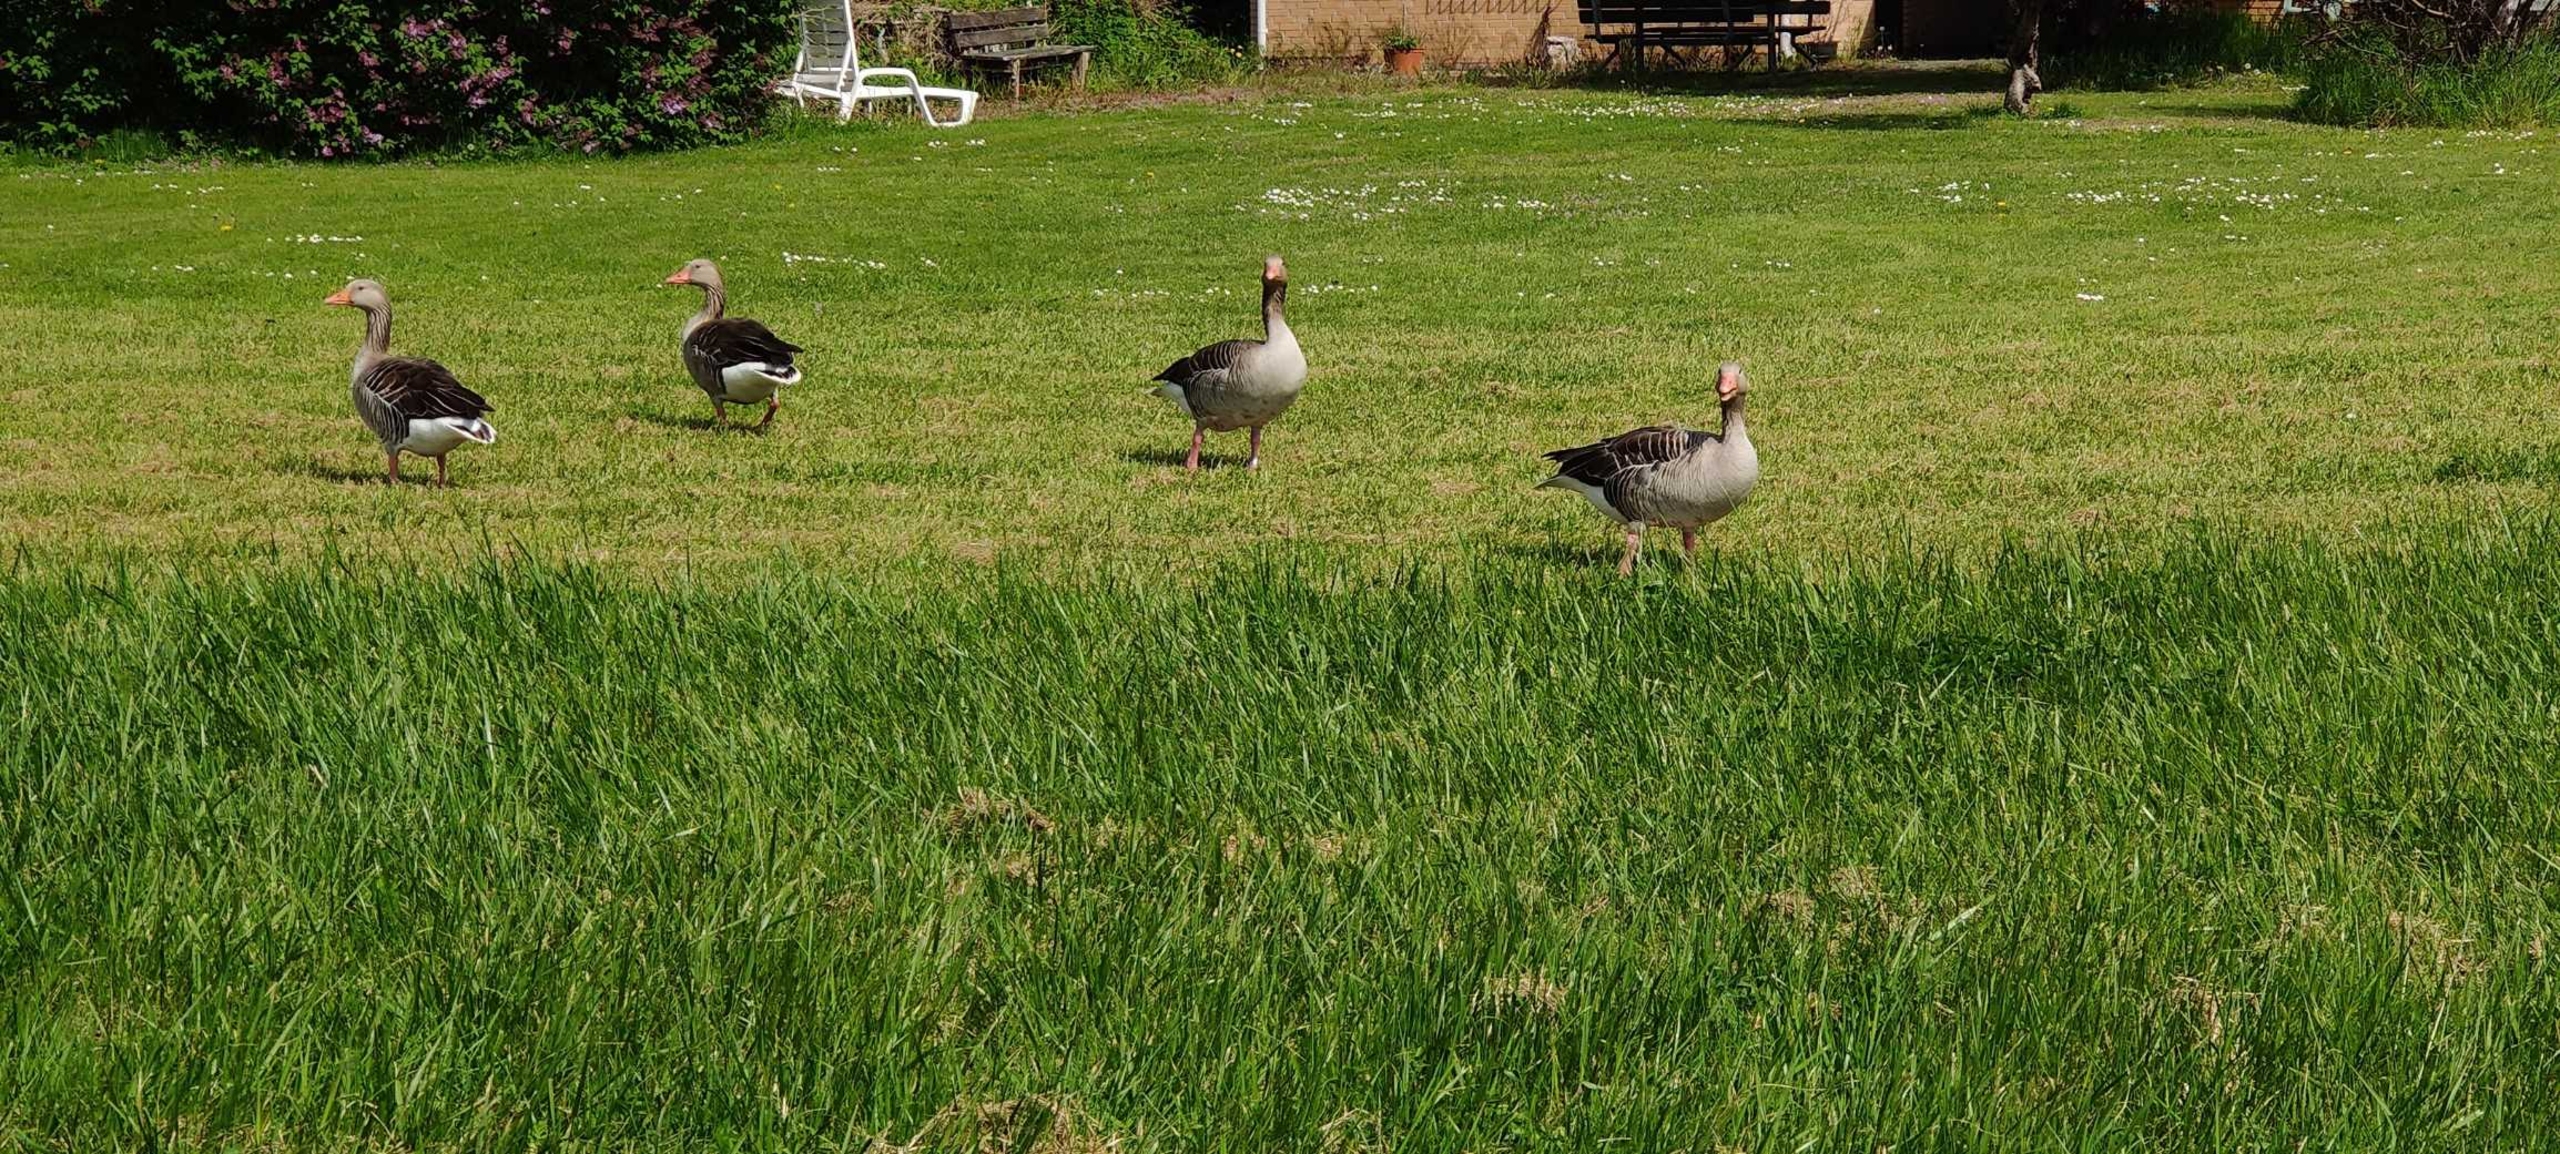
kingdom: Animalia
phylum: Chordata
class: Aves
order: Anseriformes
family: Anatidae
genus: Anser
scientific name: Anser anser
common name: Grågås
